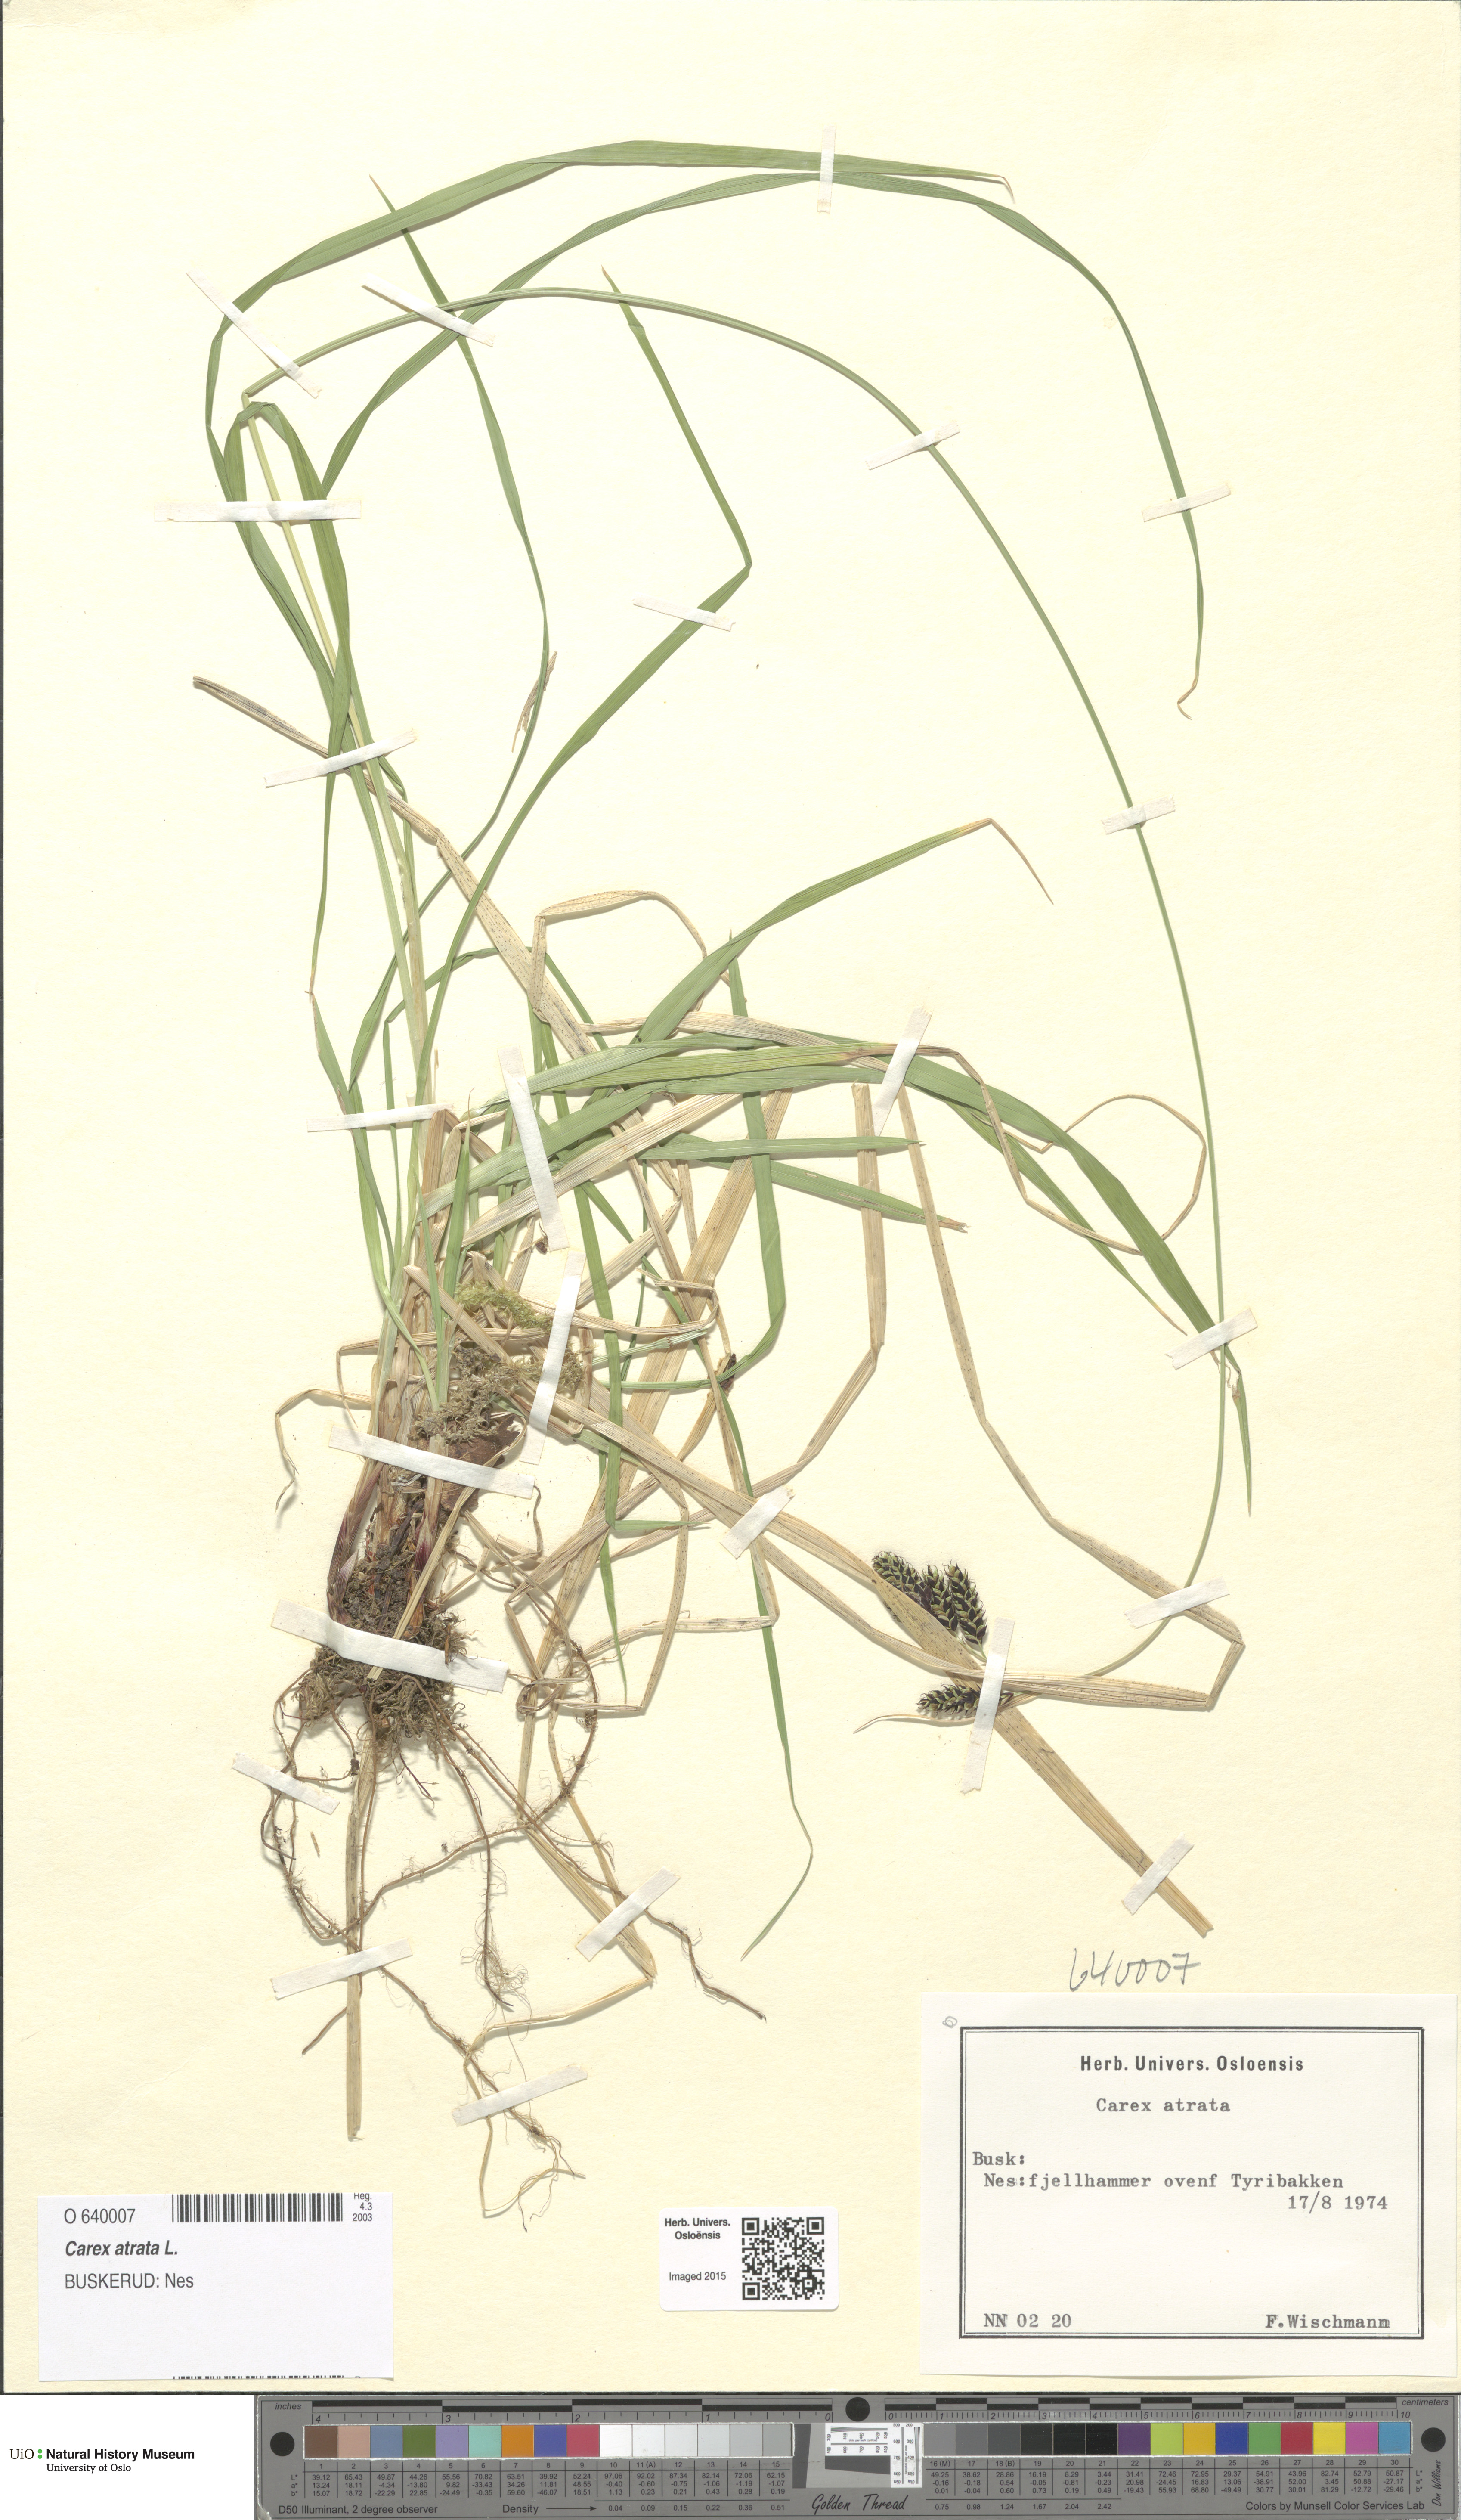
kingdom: Plantae
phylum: Tracheophyta
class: Liliopsida
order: Poales
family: Cyperaceae
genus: Carex
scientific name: Carex atrata
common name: Black alpine sedge
